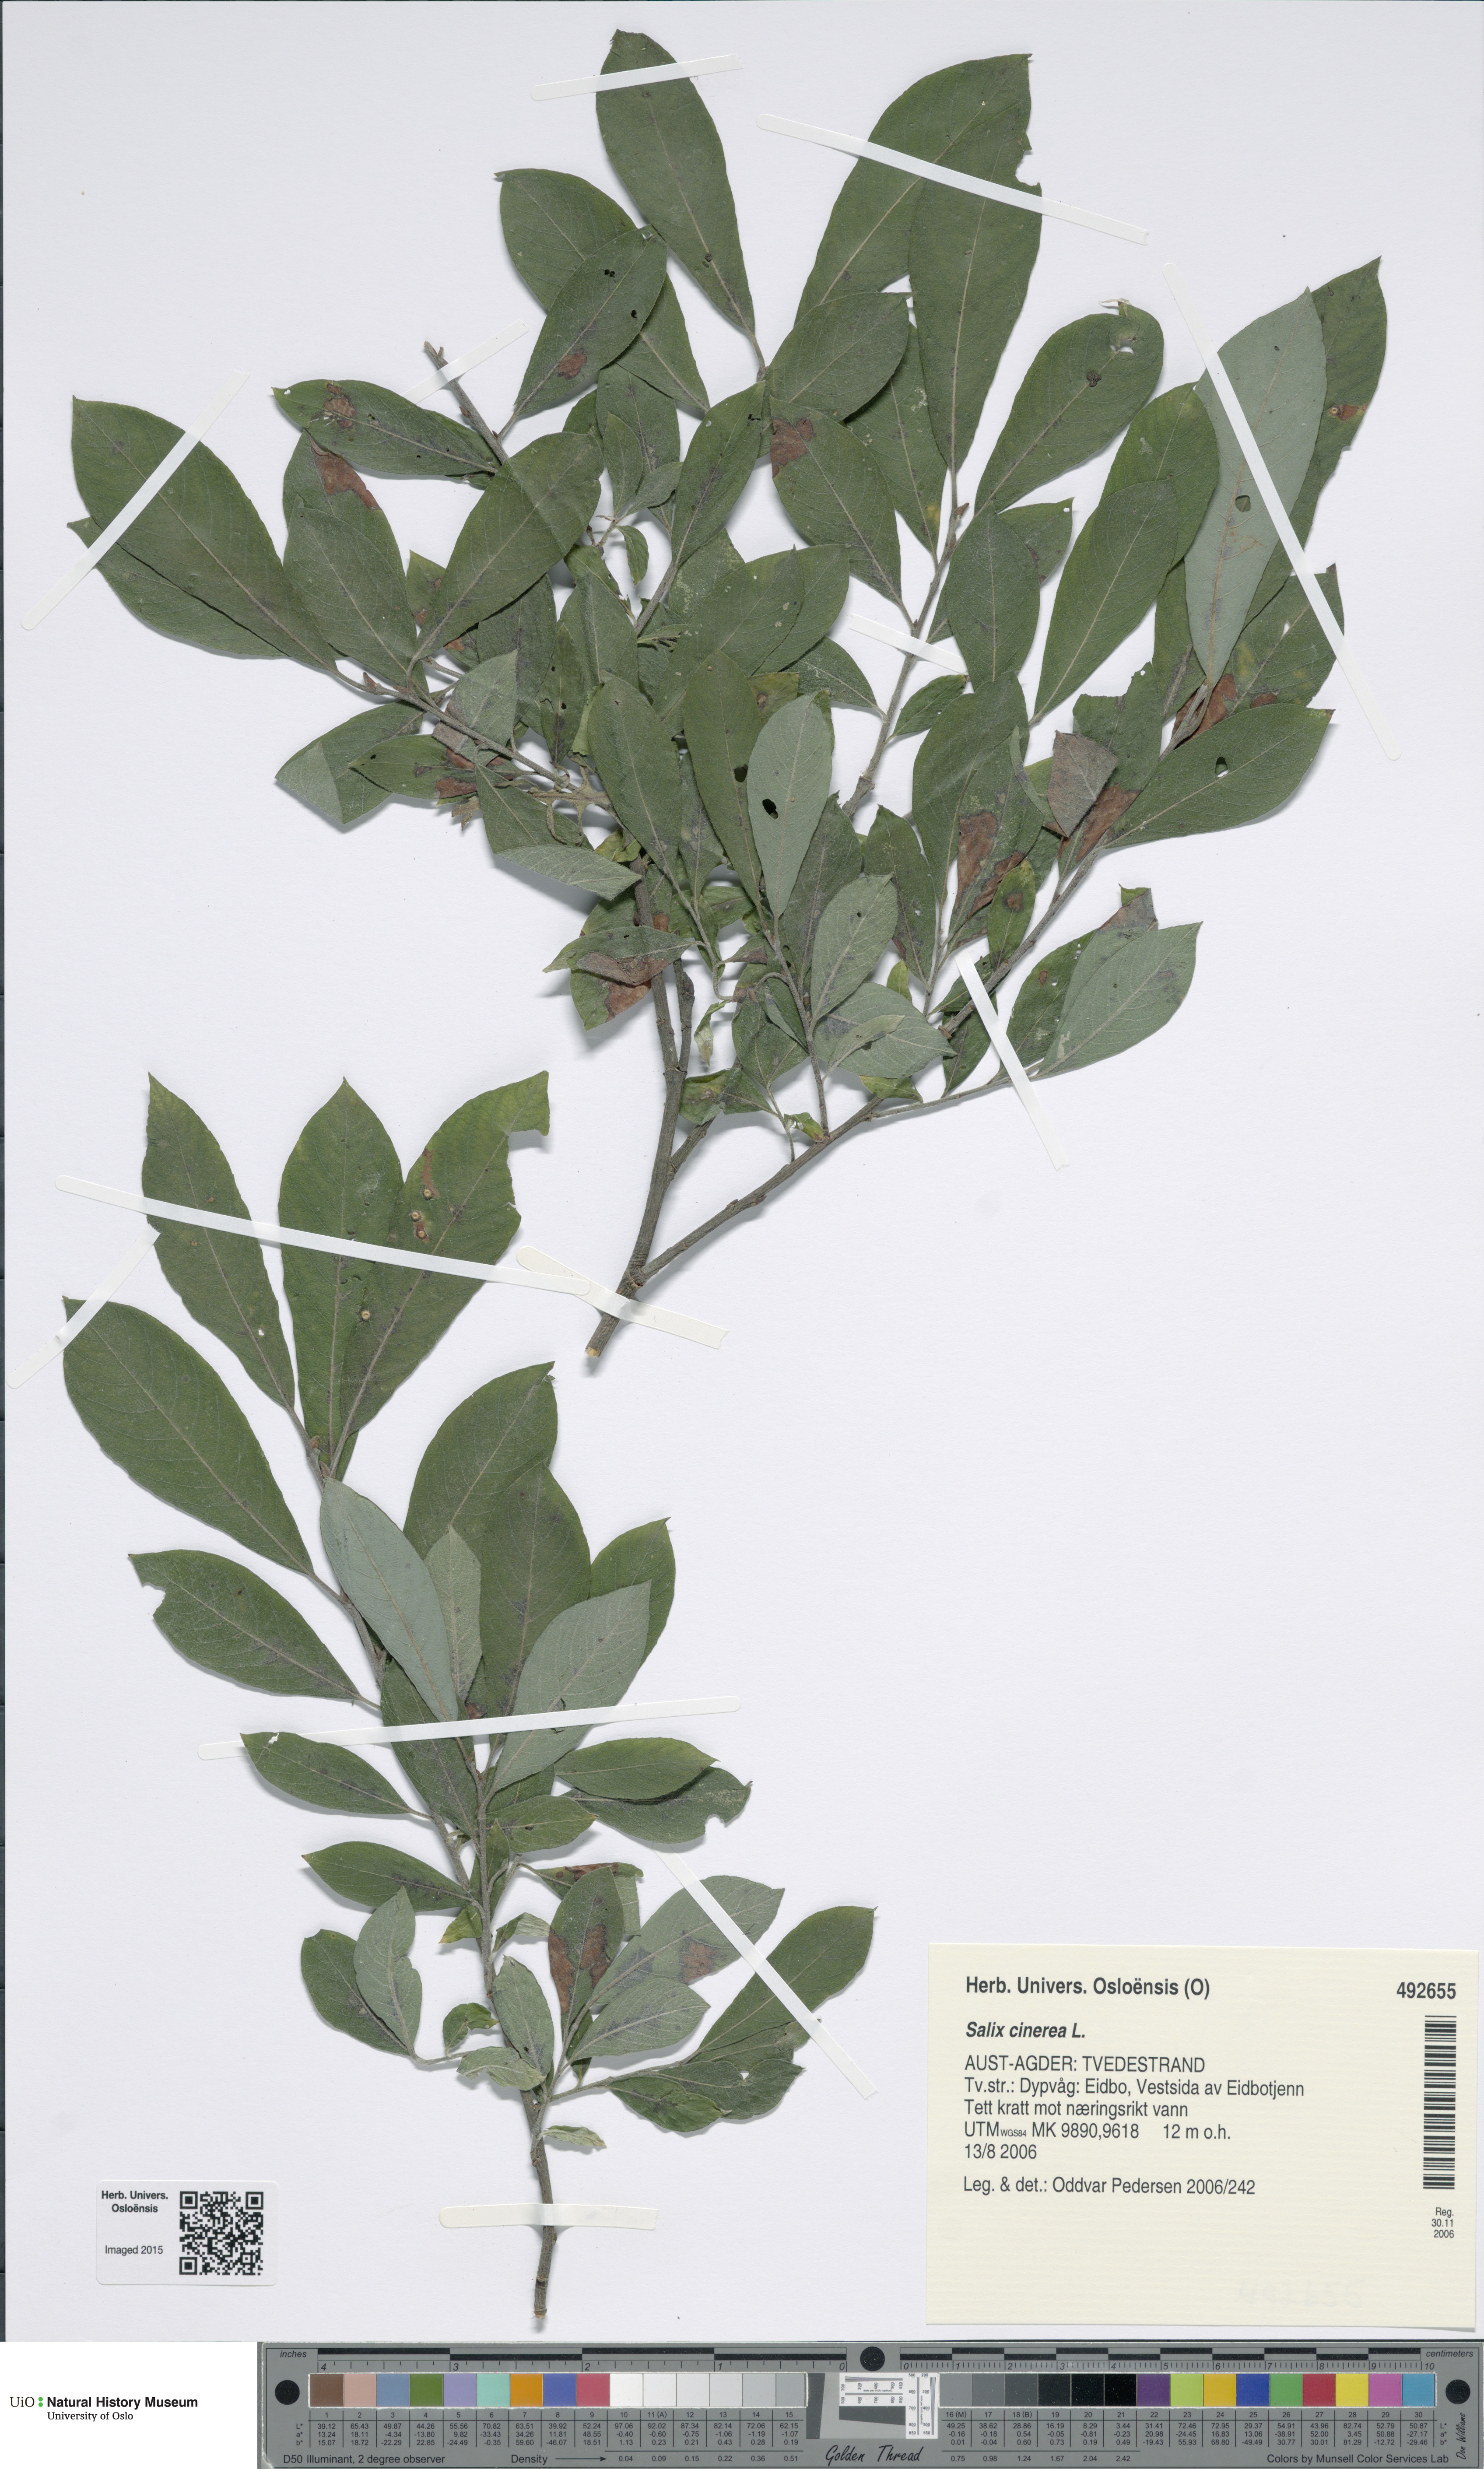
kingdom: Plantae
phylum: Tracheophyta
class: Magnoliopsida
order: Malpighiales
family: Salicaceae
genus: Salix
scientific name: Salix cinerea
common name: Common sallow
